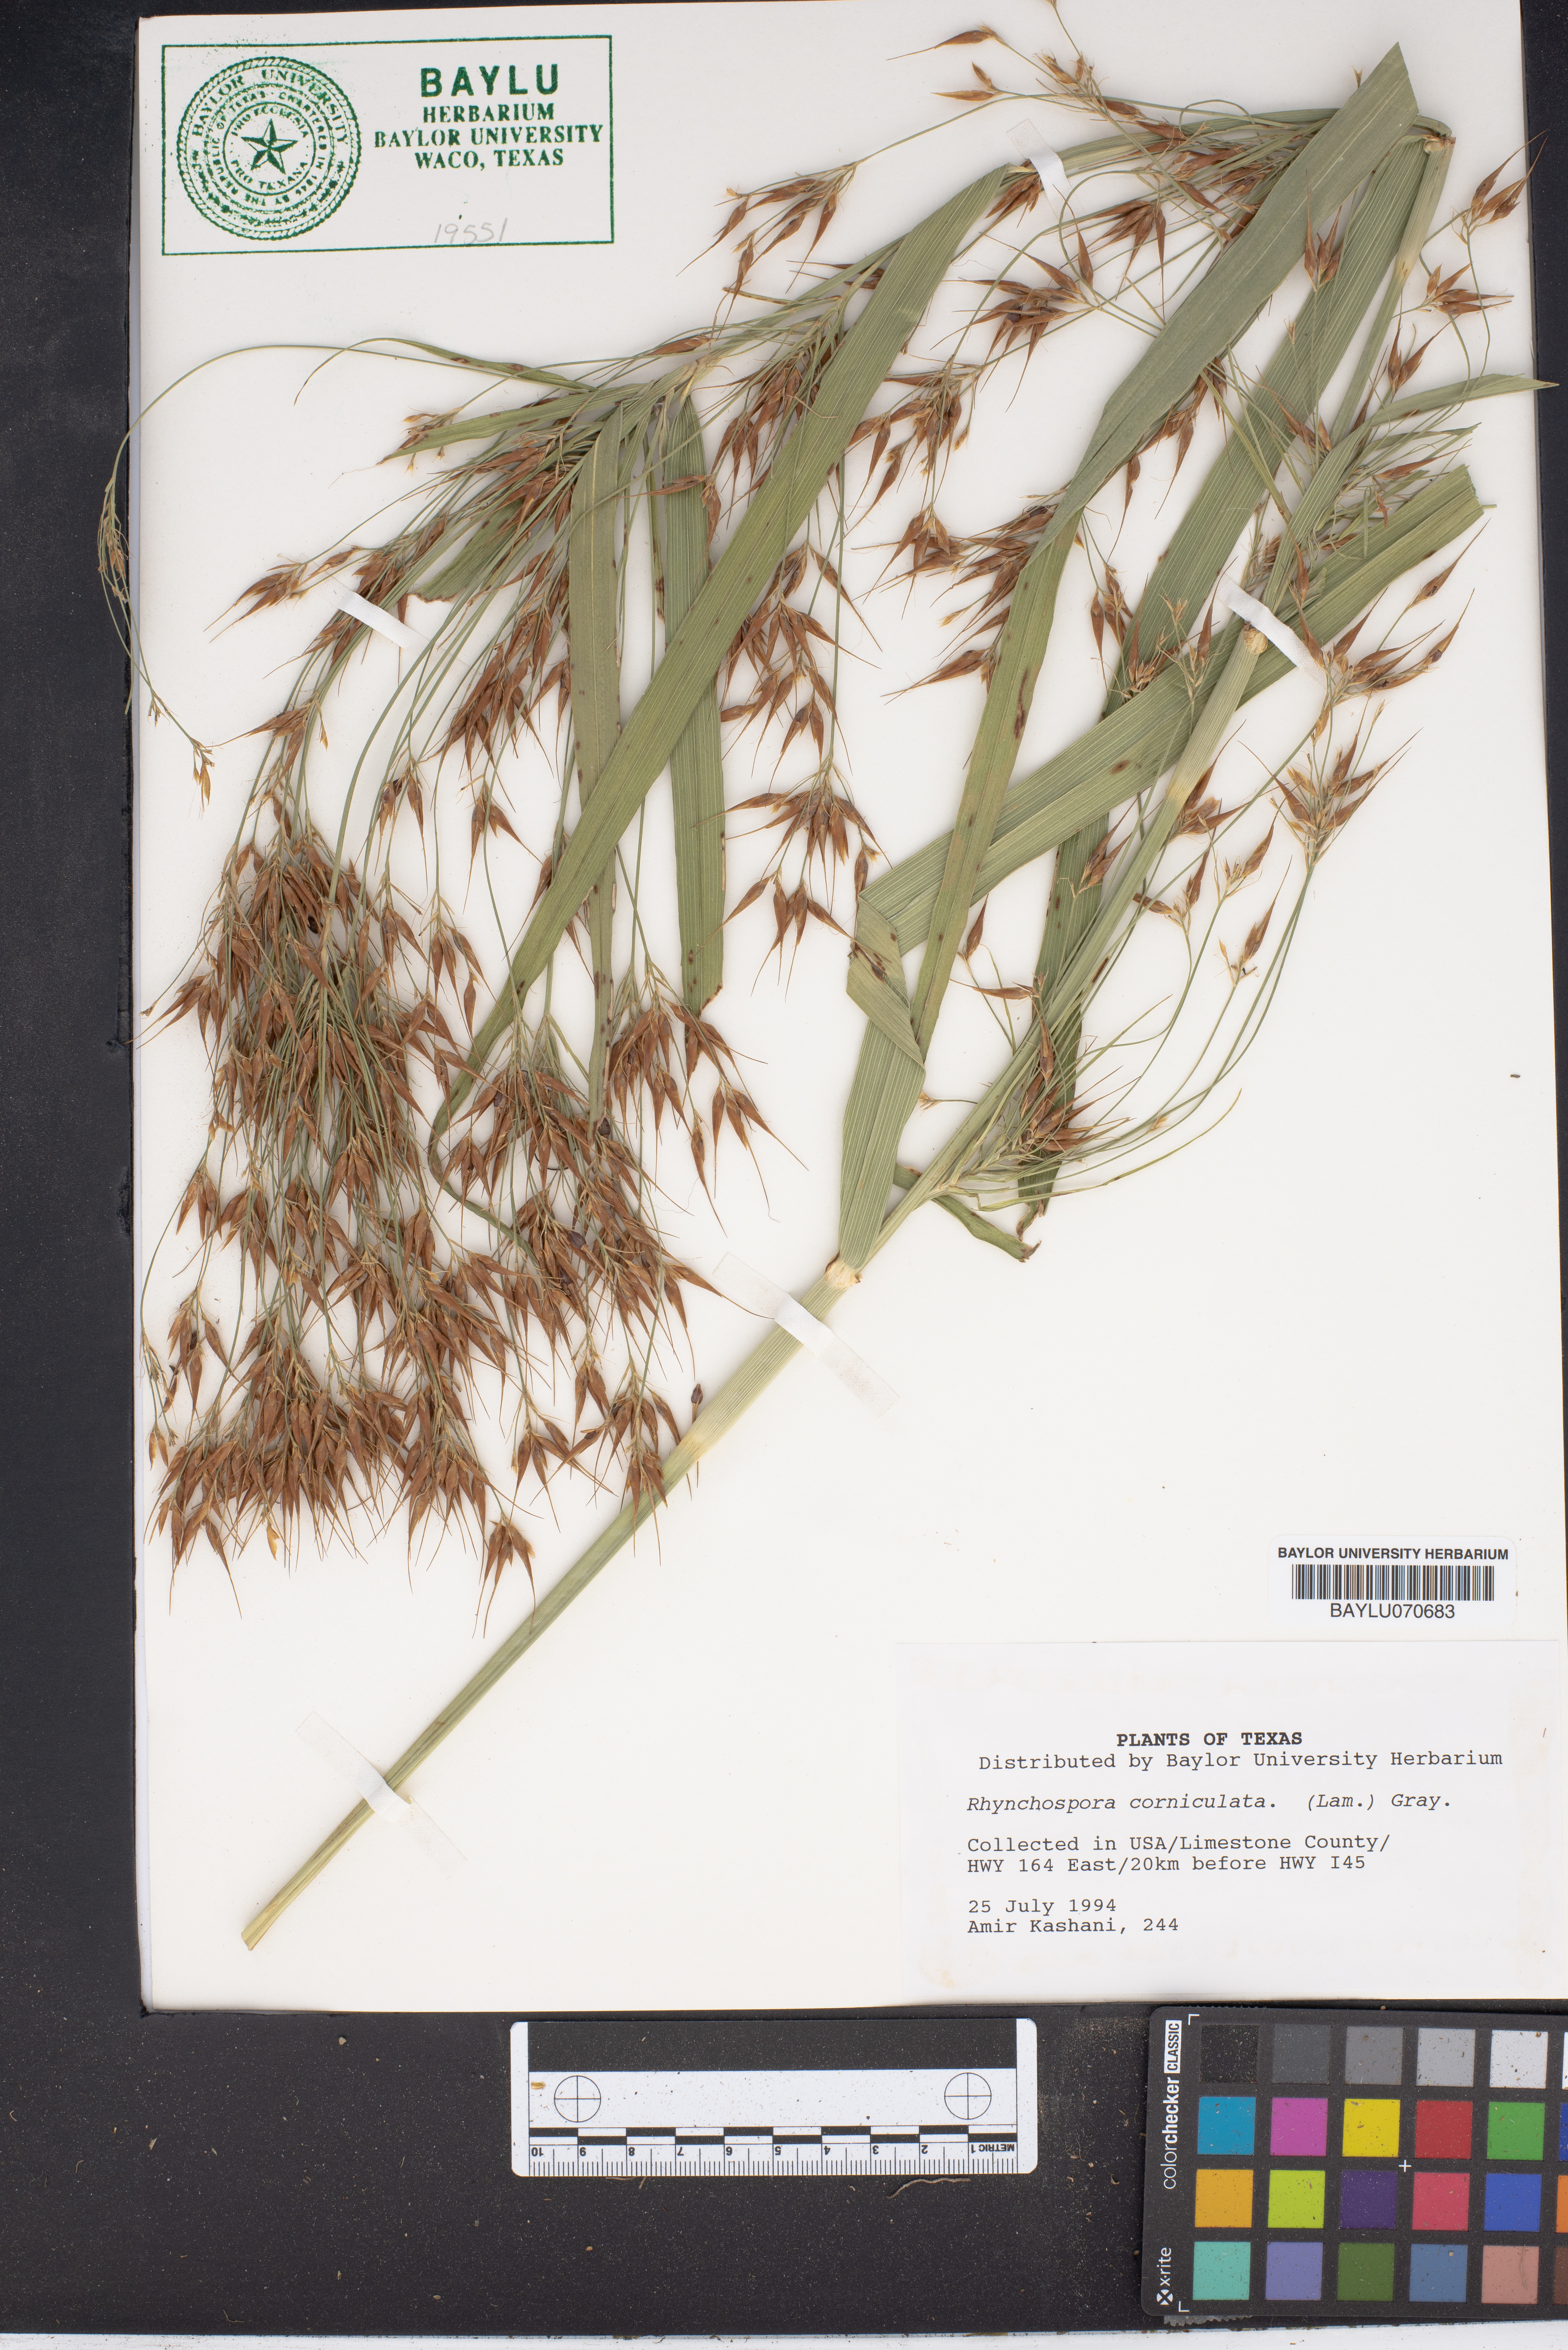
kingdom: Plantae
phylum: Tracheophyta
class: Liliopsida
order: Poales
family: Cyperaceae
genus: Rhynchospora
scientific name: Rhynchospora corniculata
